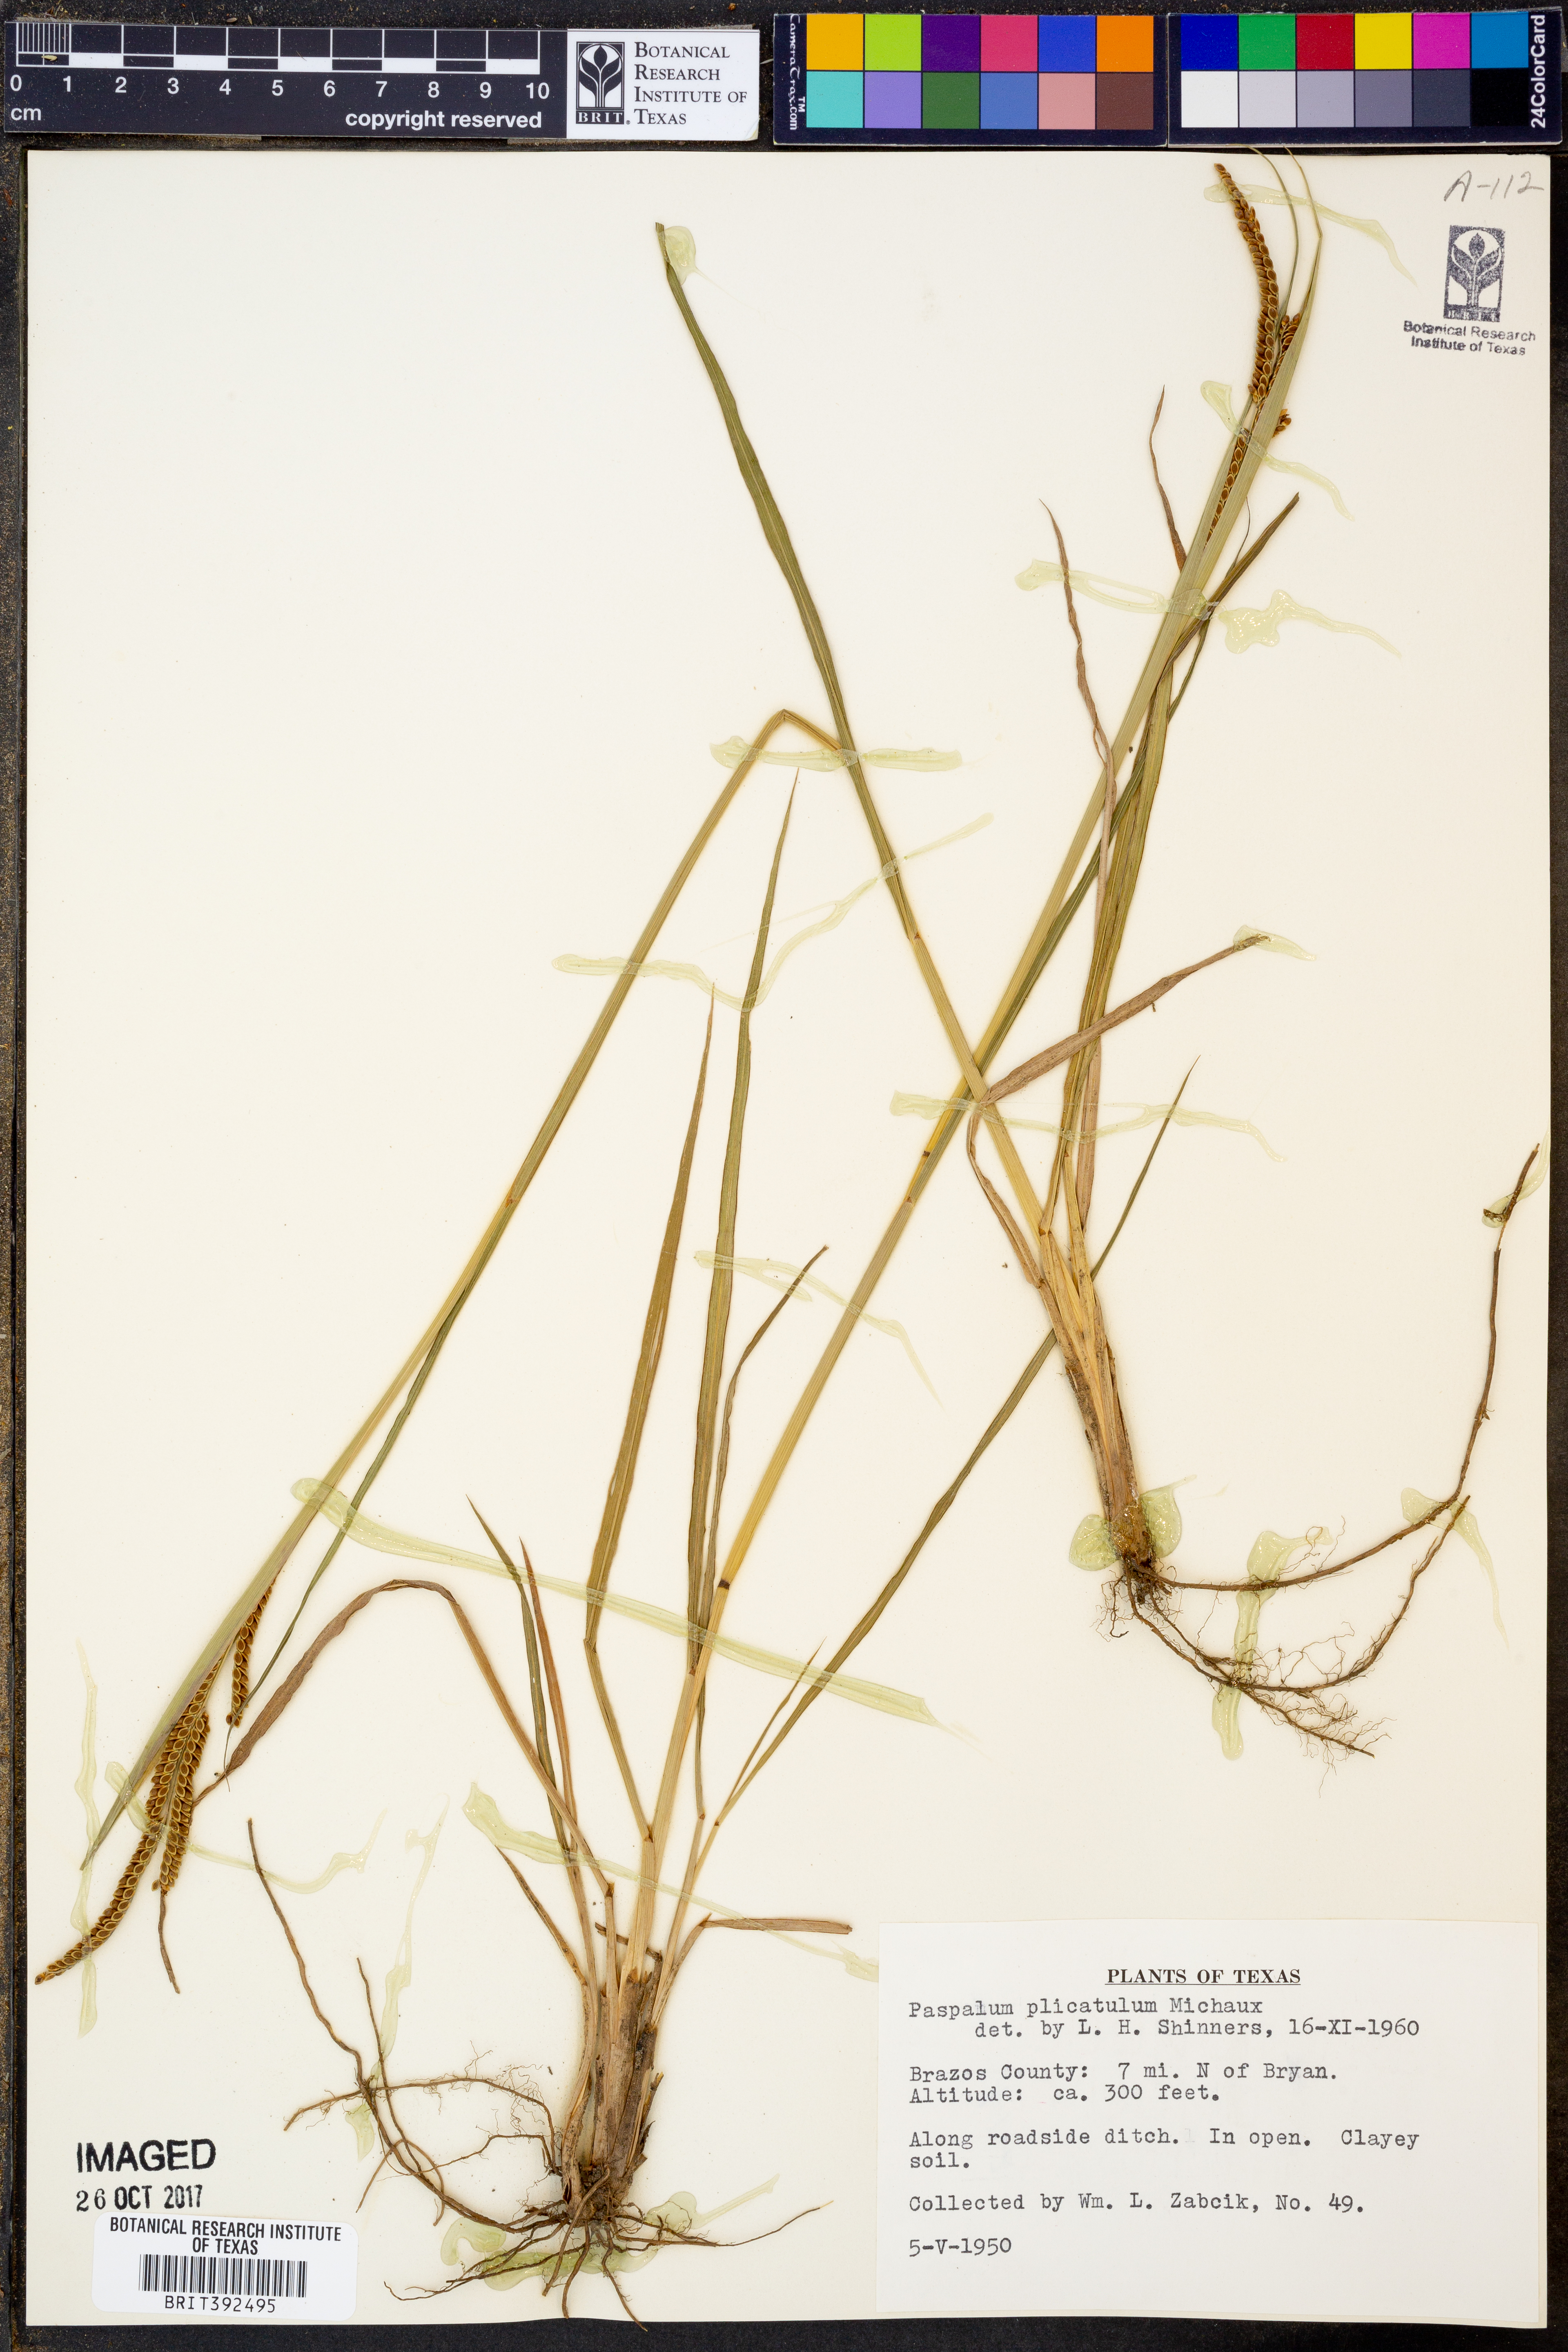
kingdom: Plantae
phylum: Tracheophyta
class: Liliopsida
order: Poales
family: Poaceae
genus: Paspalum
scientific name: Paspalum plicatulum
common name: Top paspalum
